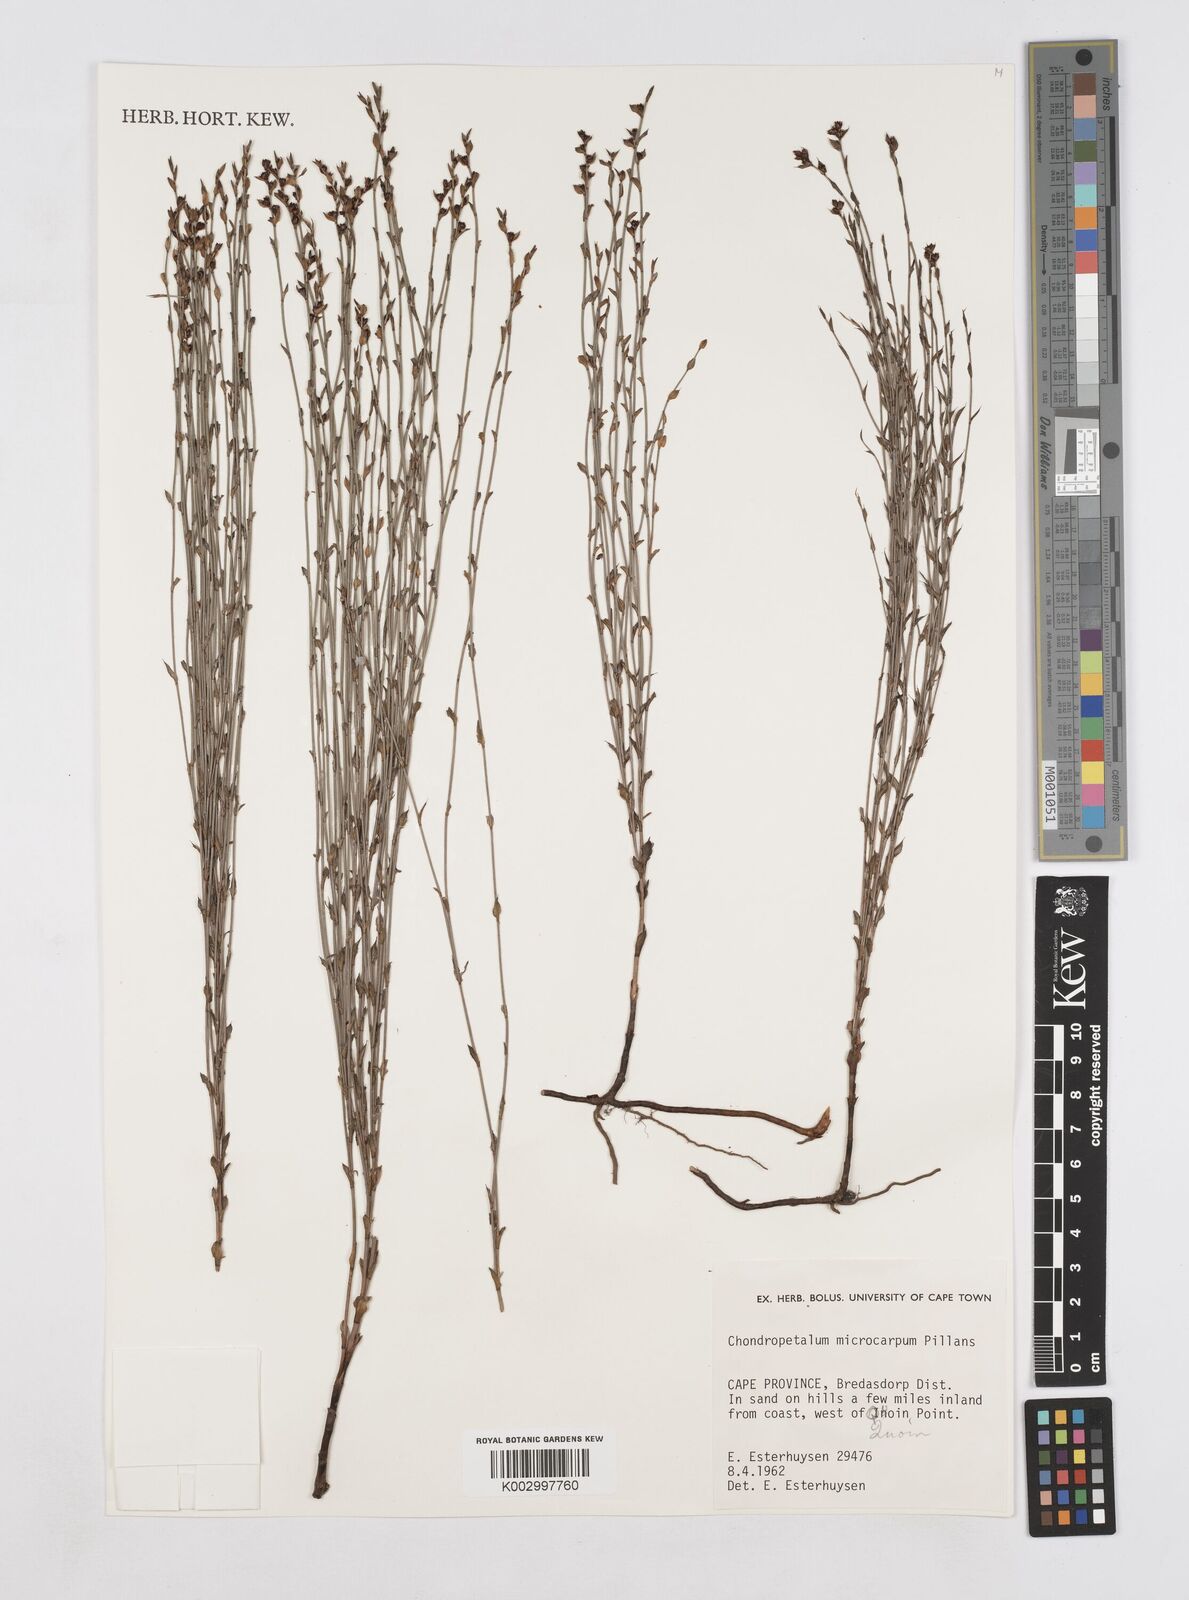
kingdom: Plantae
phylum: Tracheophyta
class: Liliopsida
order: Poales
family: Restionaceae
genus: Elegia
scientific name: Elegia juncea
